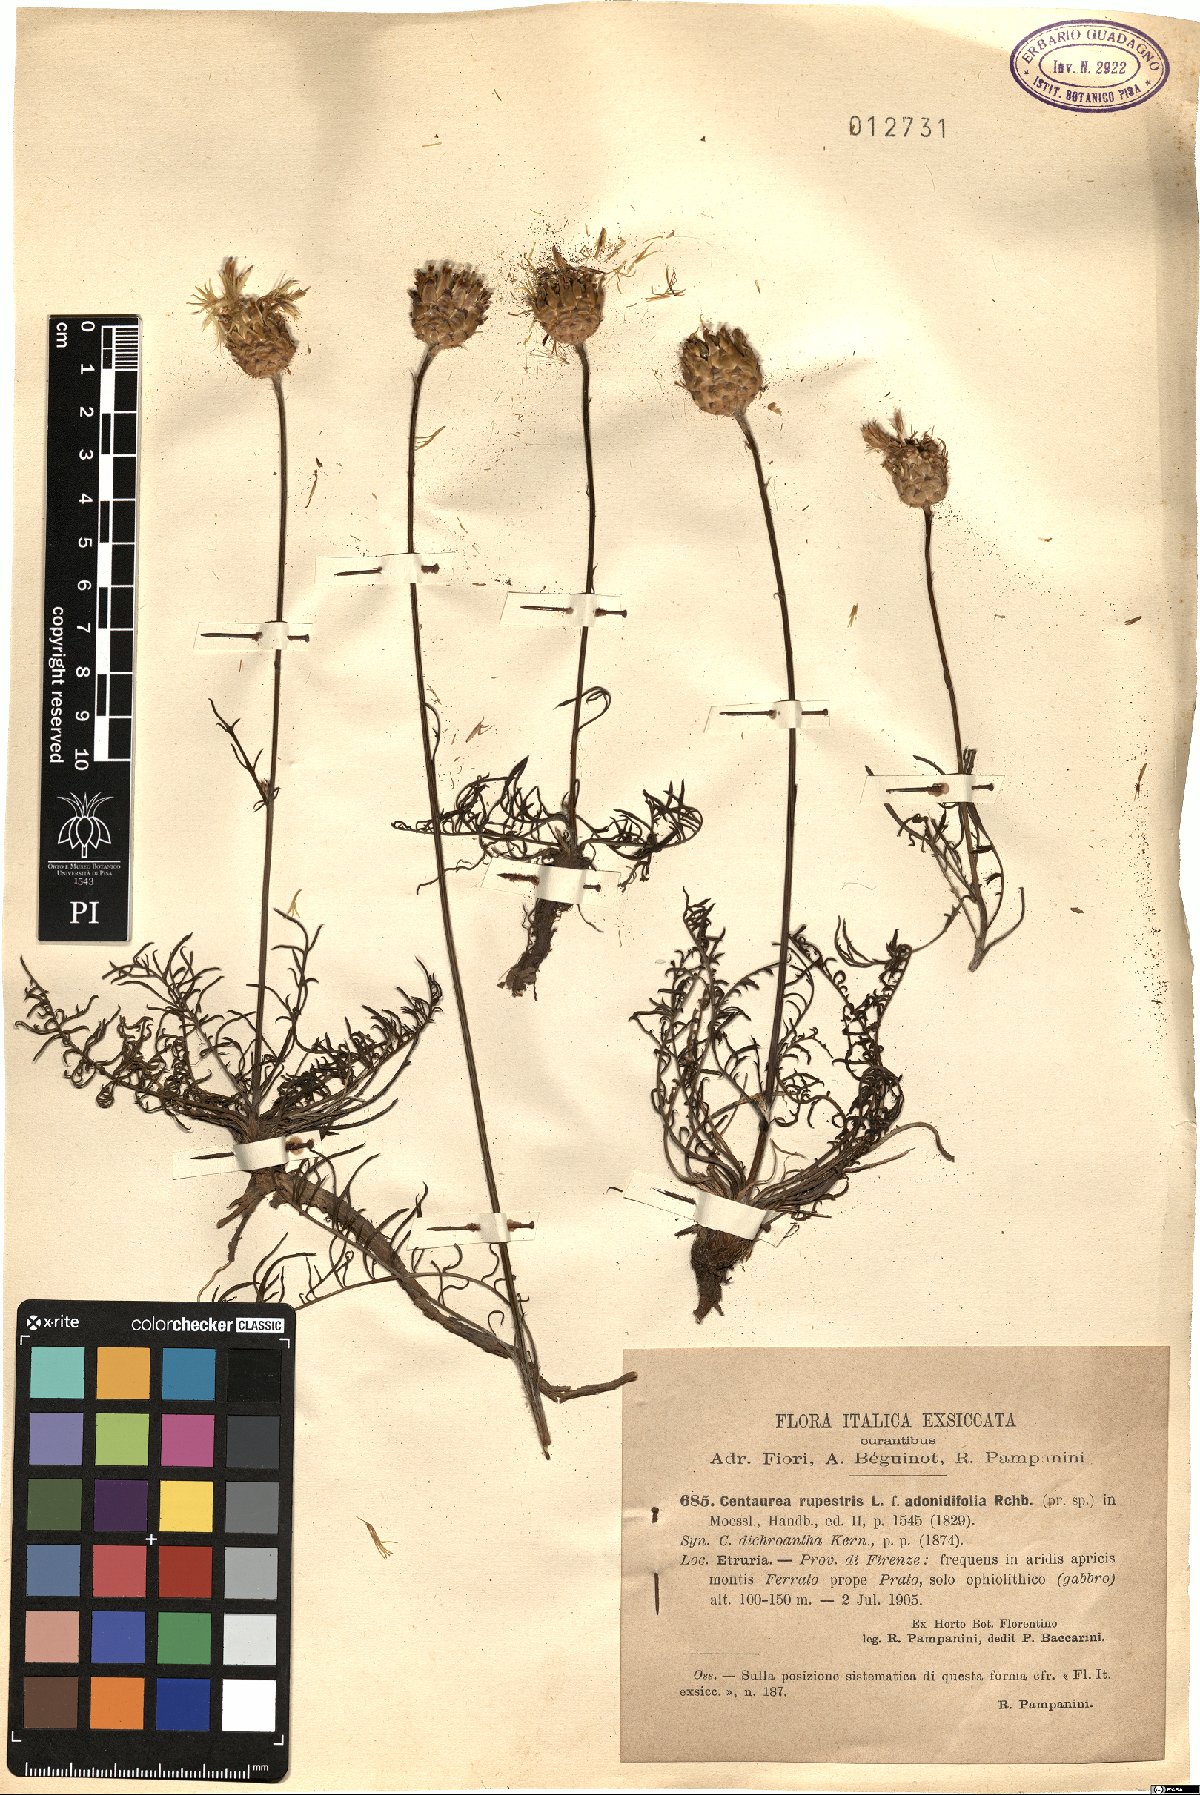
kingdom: Plantae
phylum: Tracheophyta
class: Magnoliopsida
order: Asterales
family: Asteraceae
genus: Centaurea
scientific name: Centaurea rupestris
